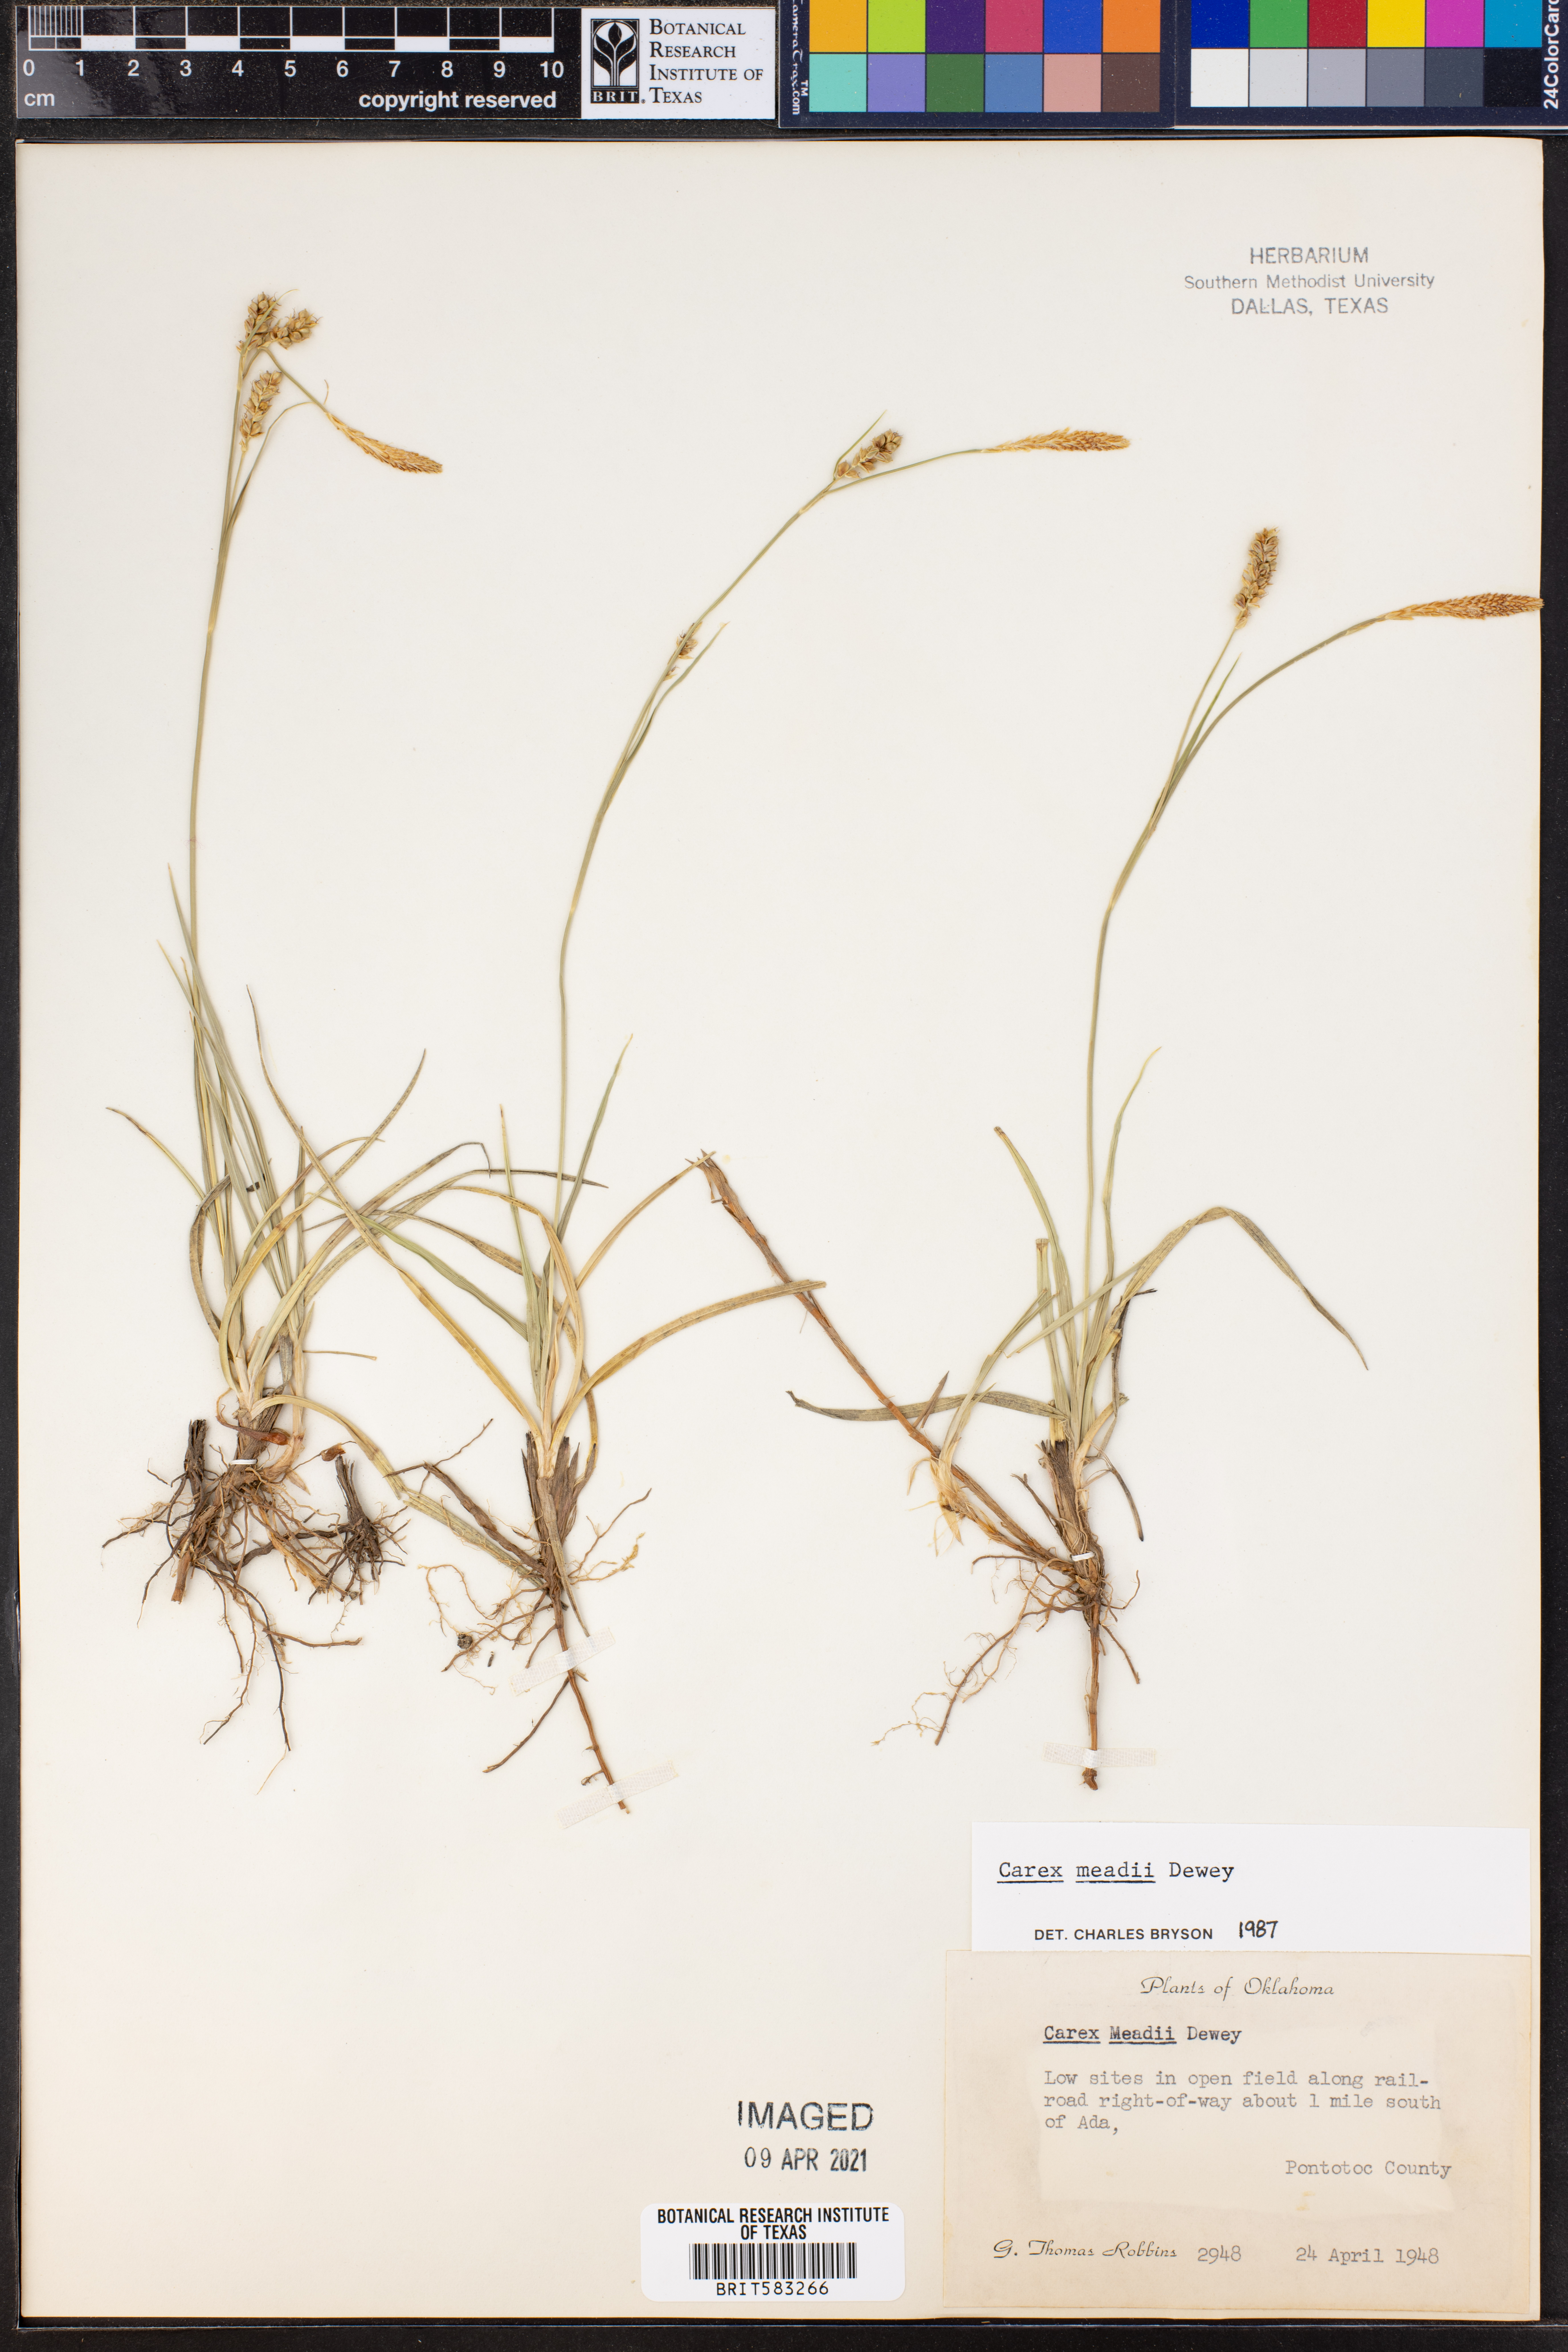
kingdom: Plantae
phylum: Tracheophyta
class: Liliopsida
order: Poales
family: Cyperaceae
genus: Carex
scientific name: Carex meadii
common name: Mead's sedge
